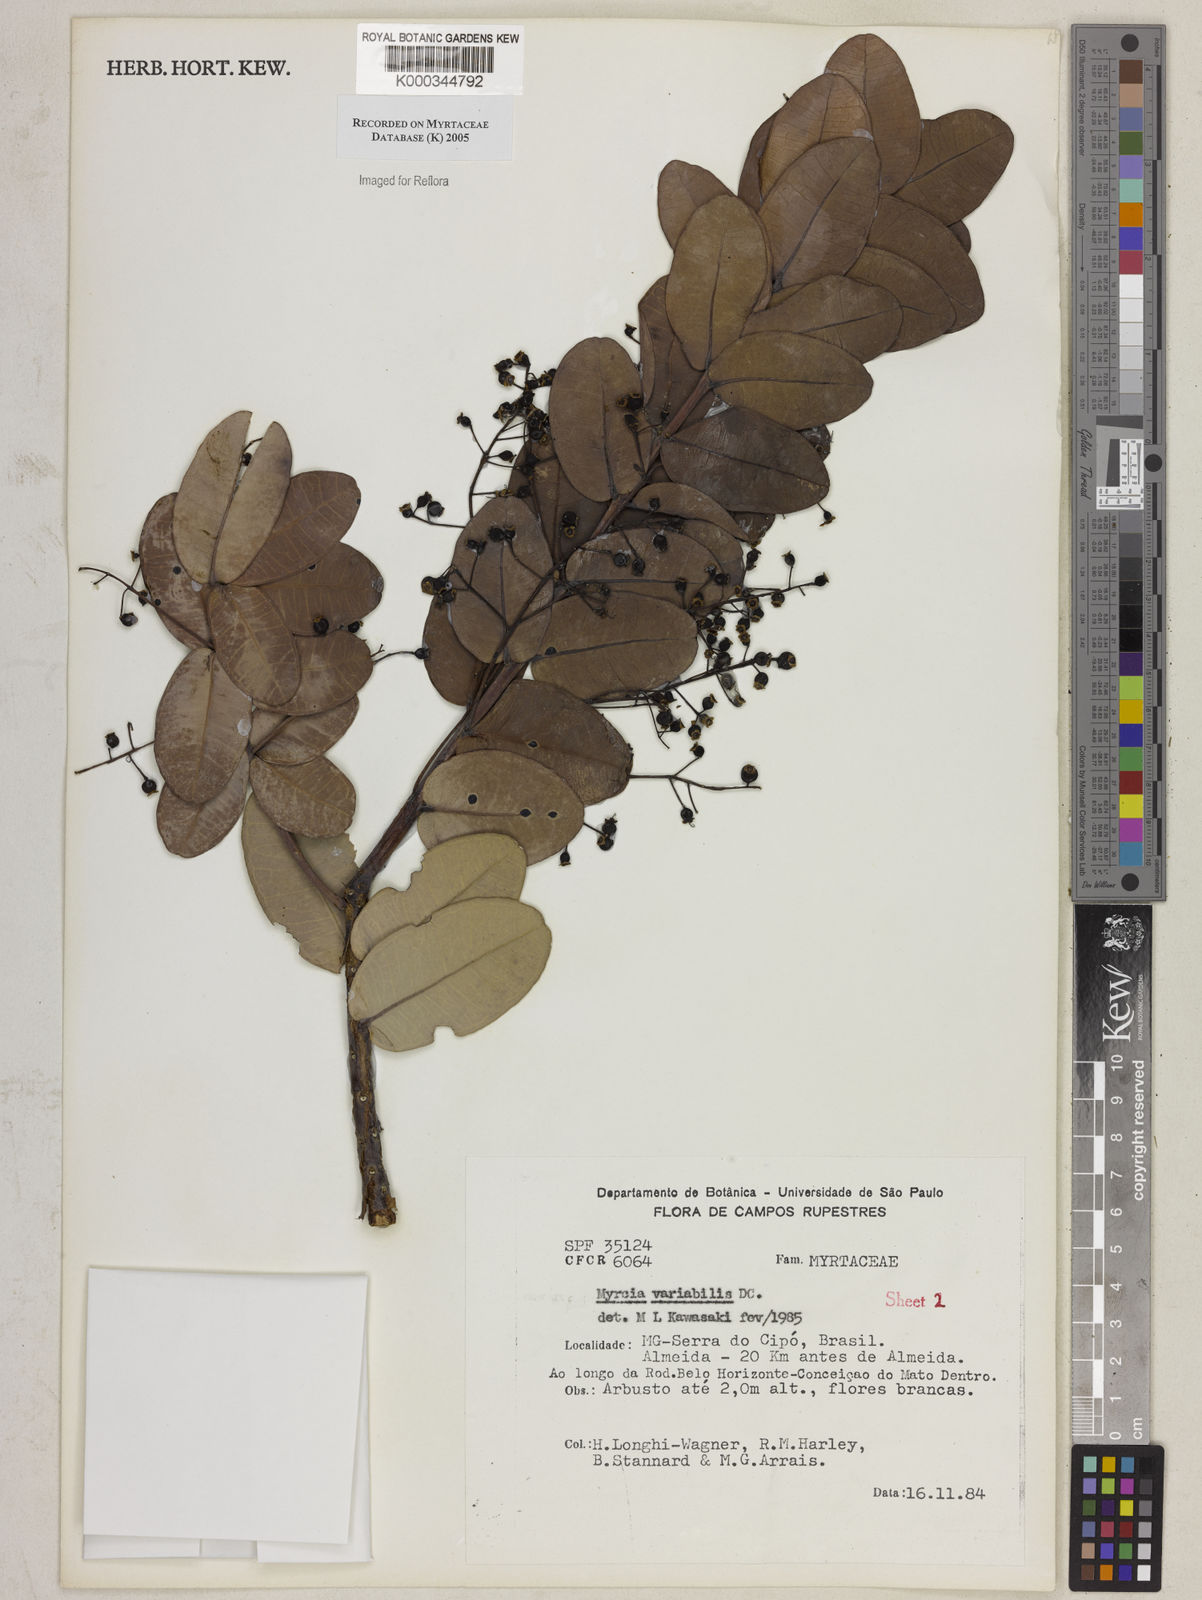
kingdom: Plantae
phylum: Tracheophyta
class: Magnoliopsida
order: Myrtales
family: Myrtaceae
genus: Myrcia
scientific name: Myrcia variabilis
